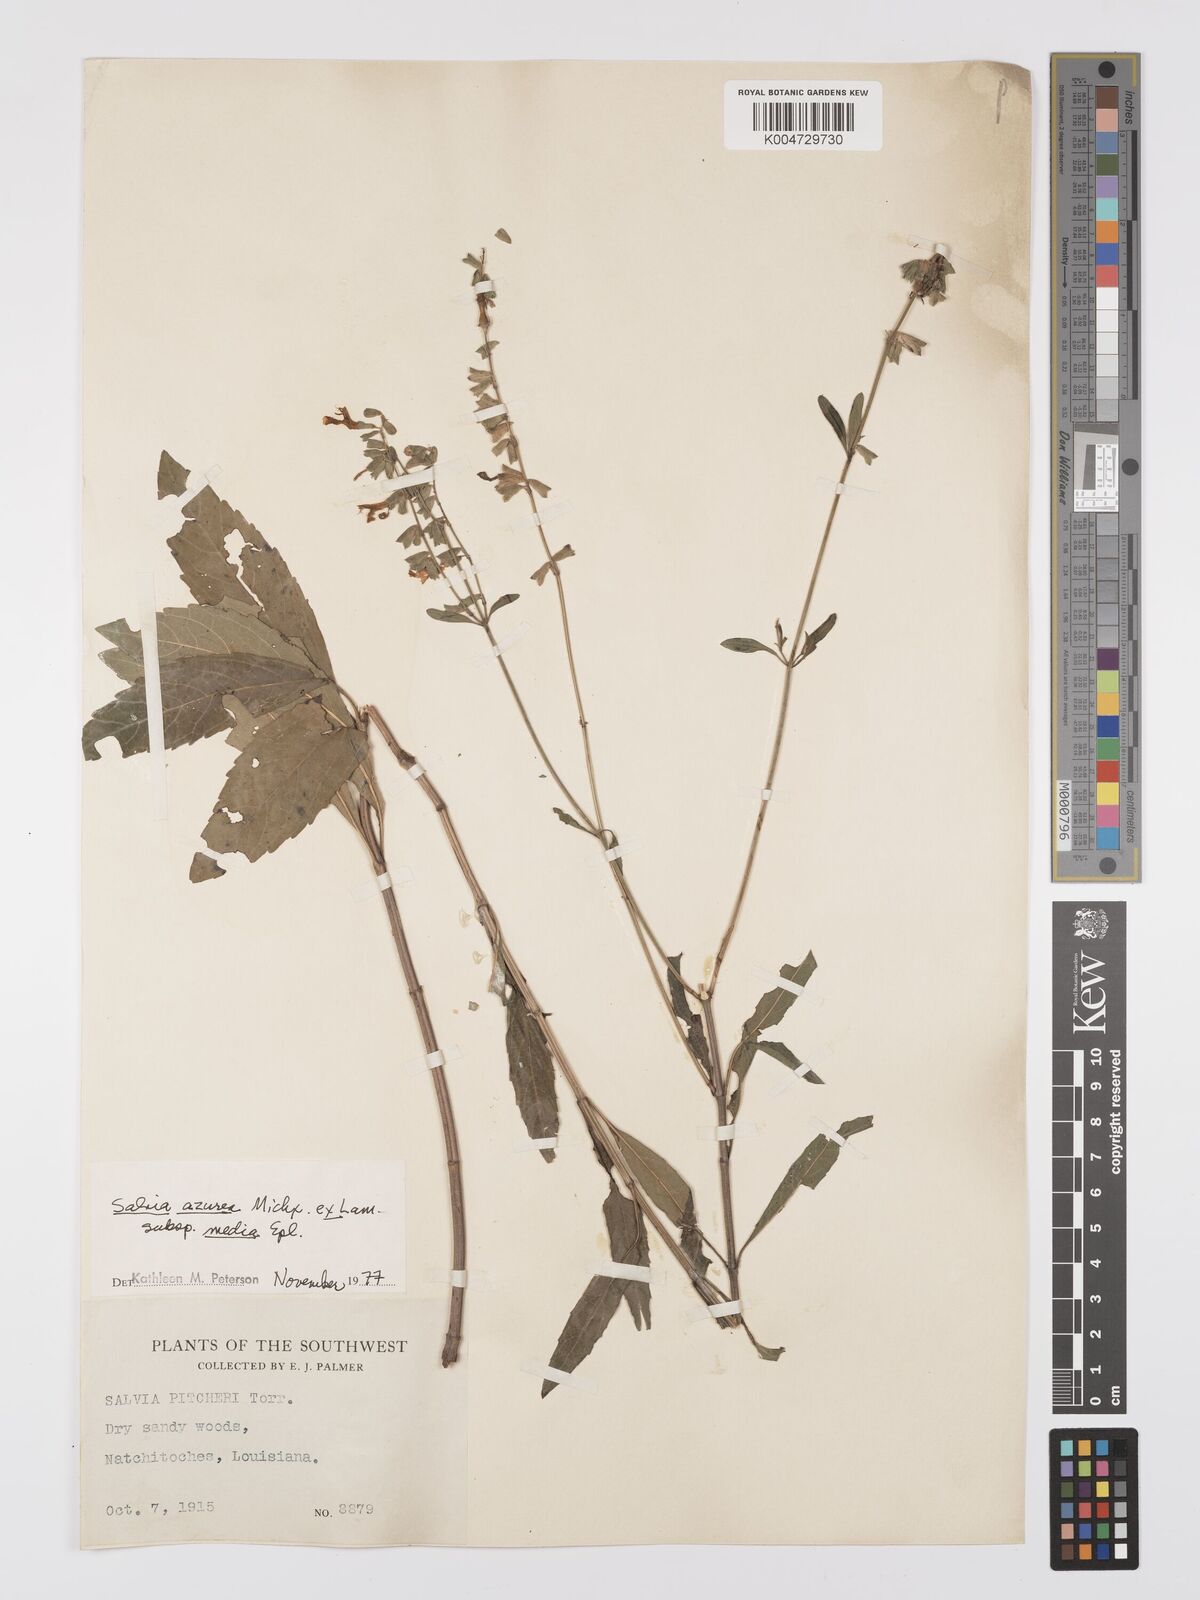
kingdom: Plantae
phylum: Tracheophyta
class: Magnoliopsida
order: Lamiales
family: Lamiaceae
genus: Salvia
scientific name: Salvia azurea
